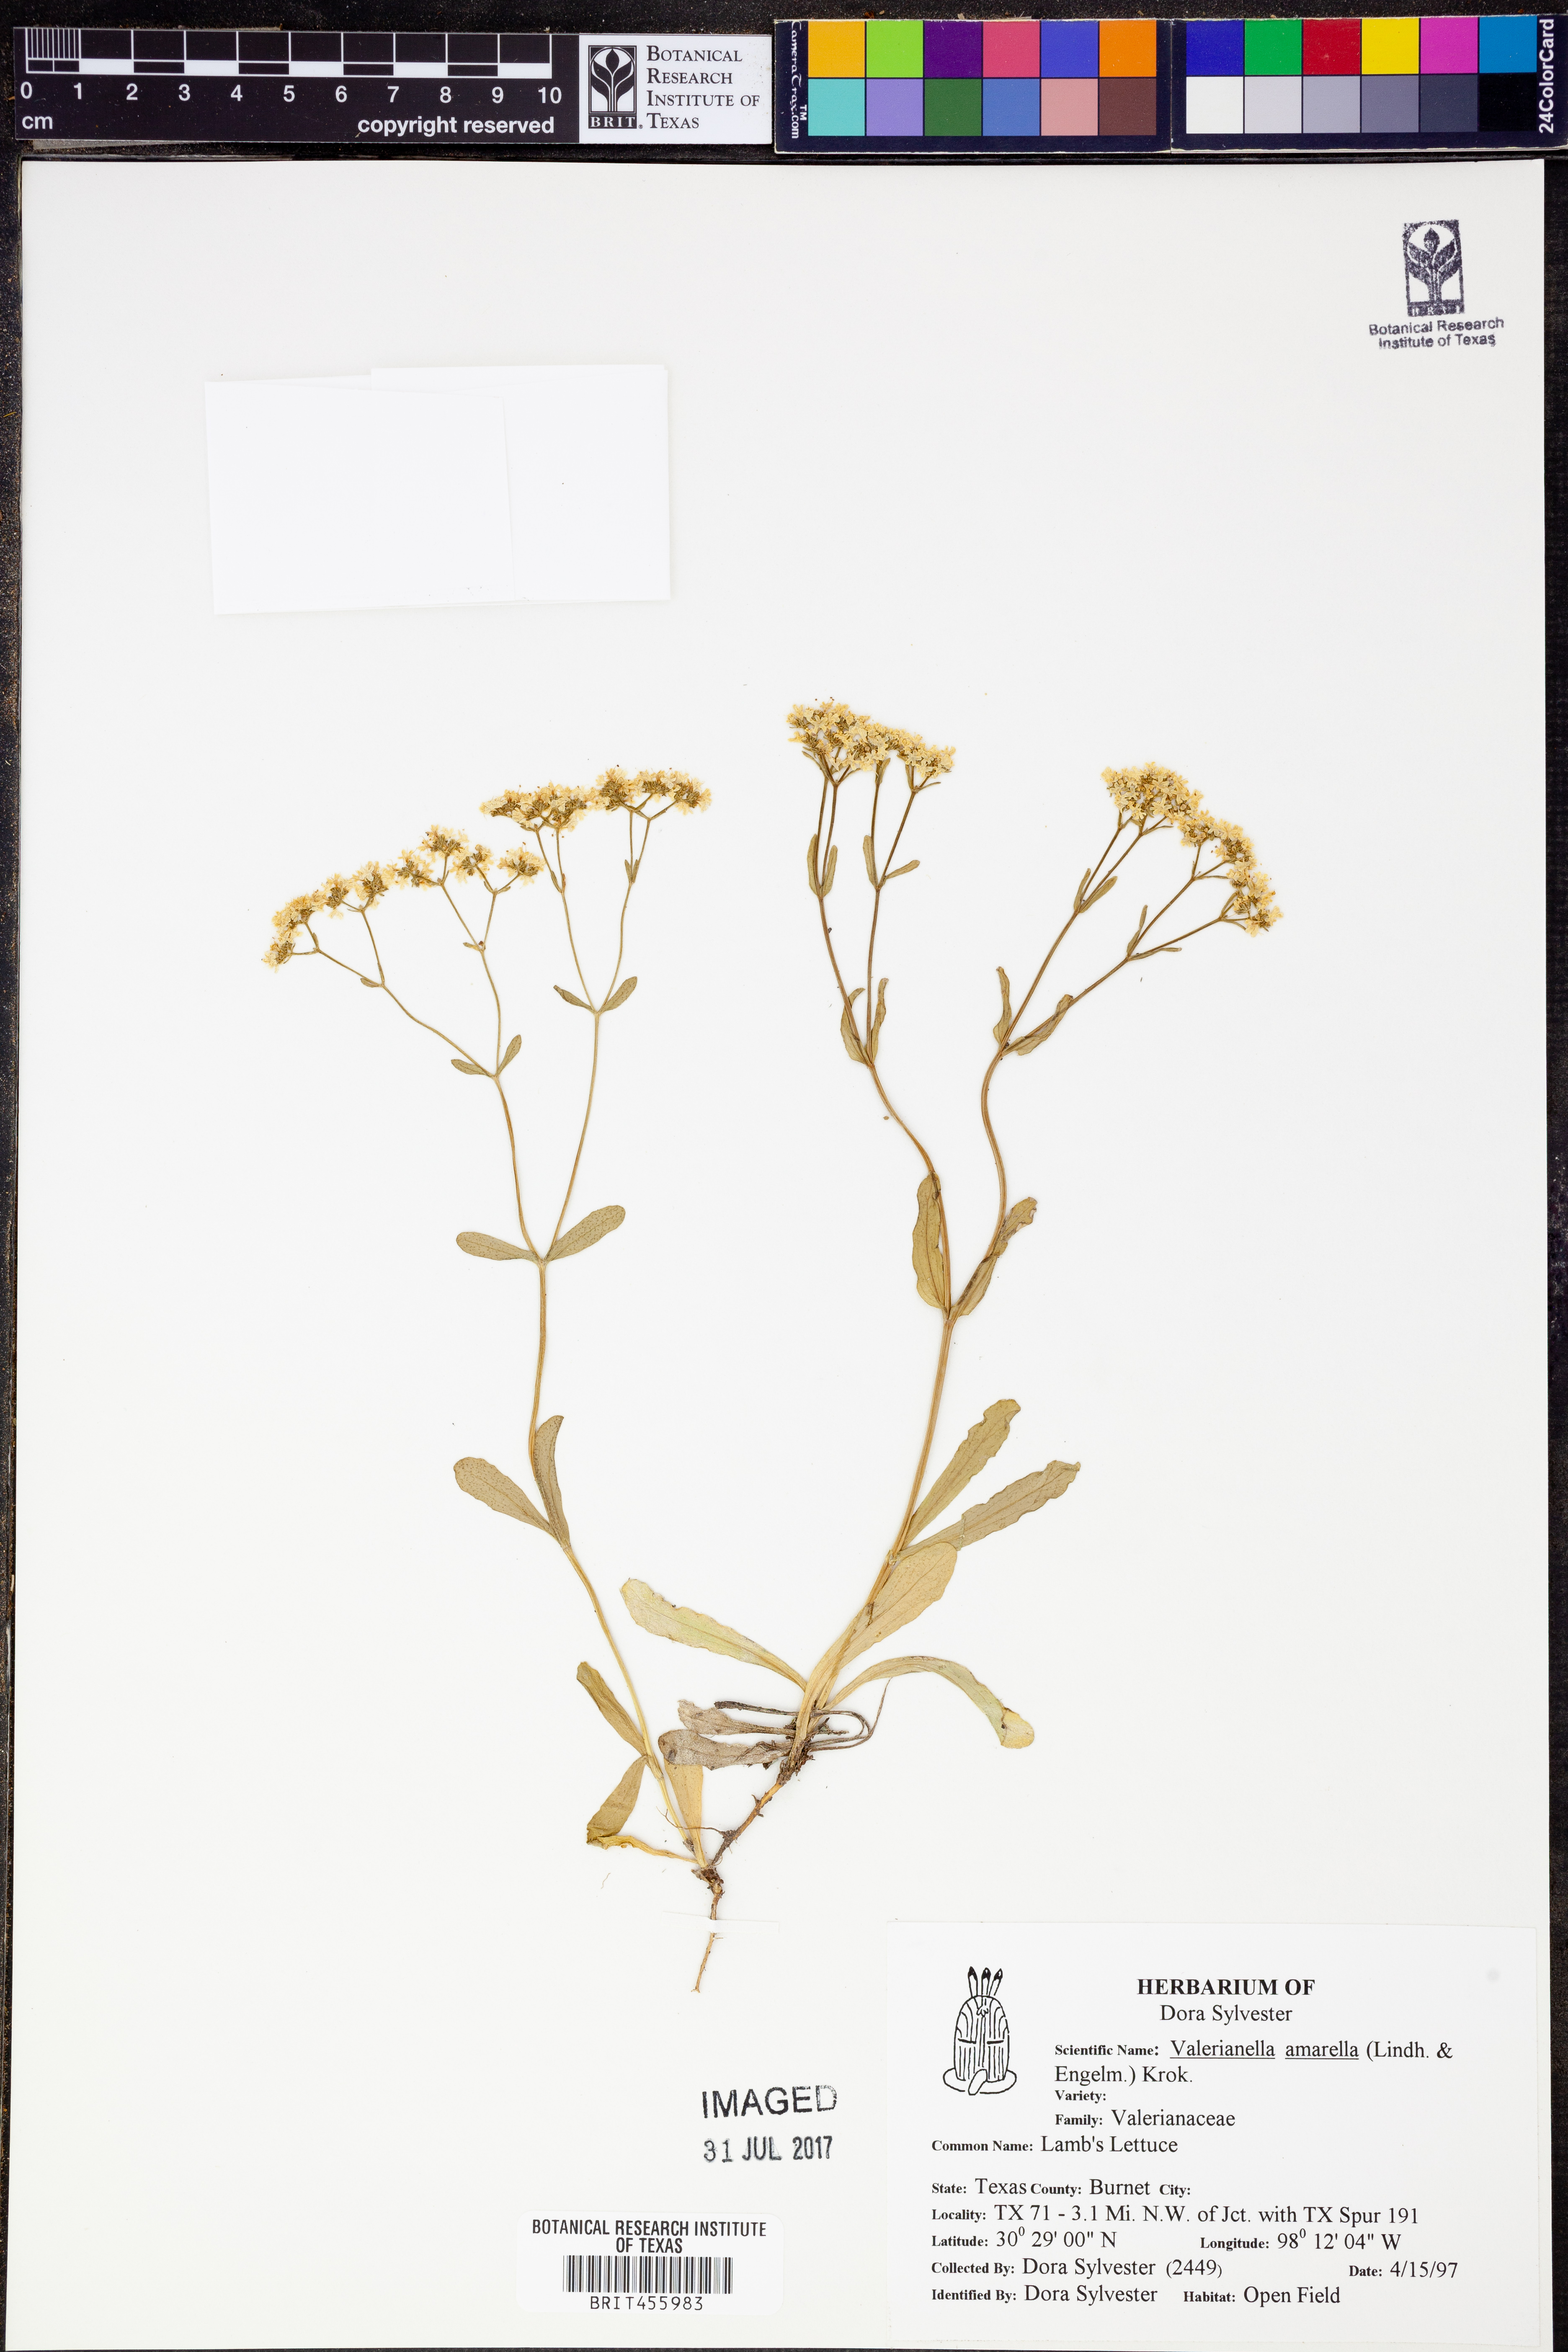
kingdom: Plantae
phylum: Tracheophyta
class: Magnoliopsida
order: Dipsacales
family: Caprifoliaceae
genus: Valerianella
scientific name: Valerianella amarella
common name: Hariy cornsalad
